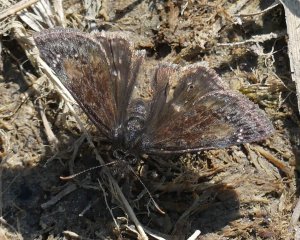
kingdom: Animalia
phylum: Arthropoda
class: Insecta
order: Lepidoptera
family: Hesperiidae
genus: Gesta
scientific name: Gesta
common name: Wild Indigo Duskywing
